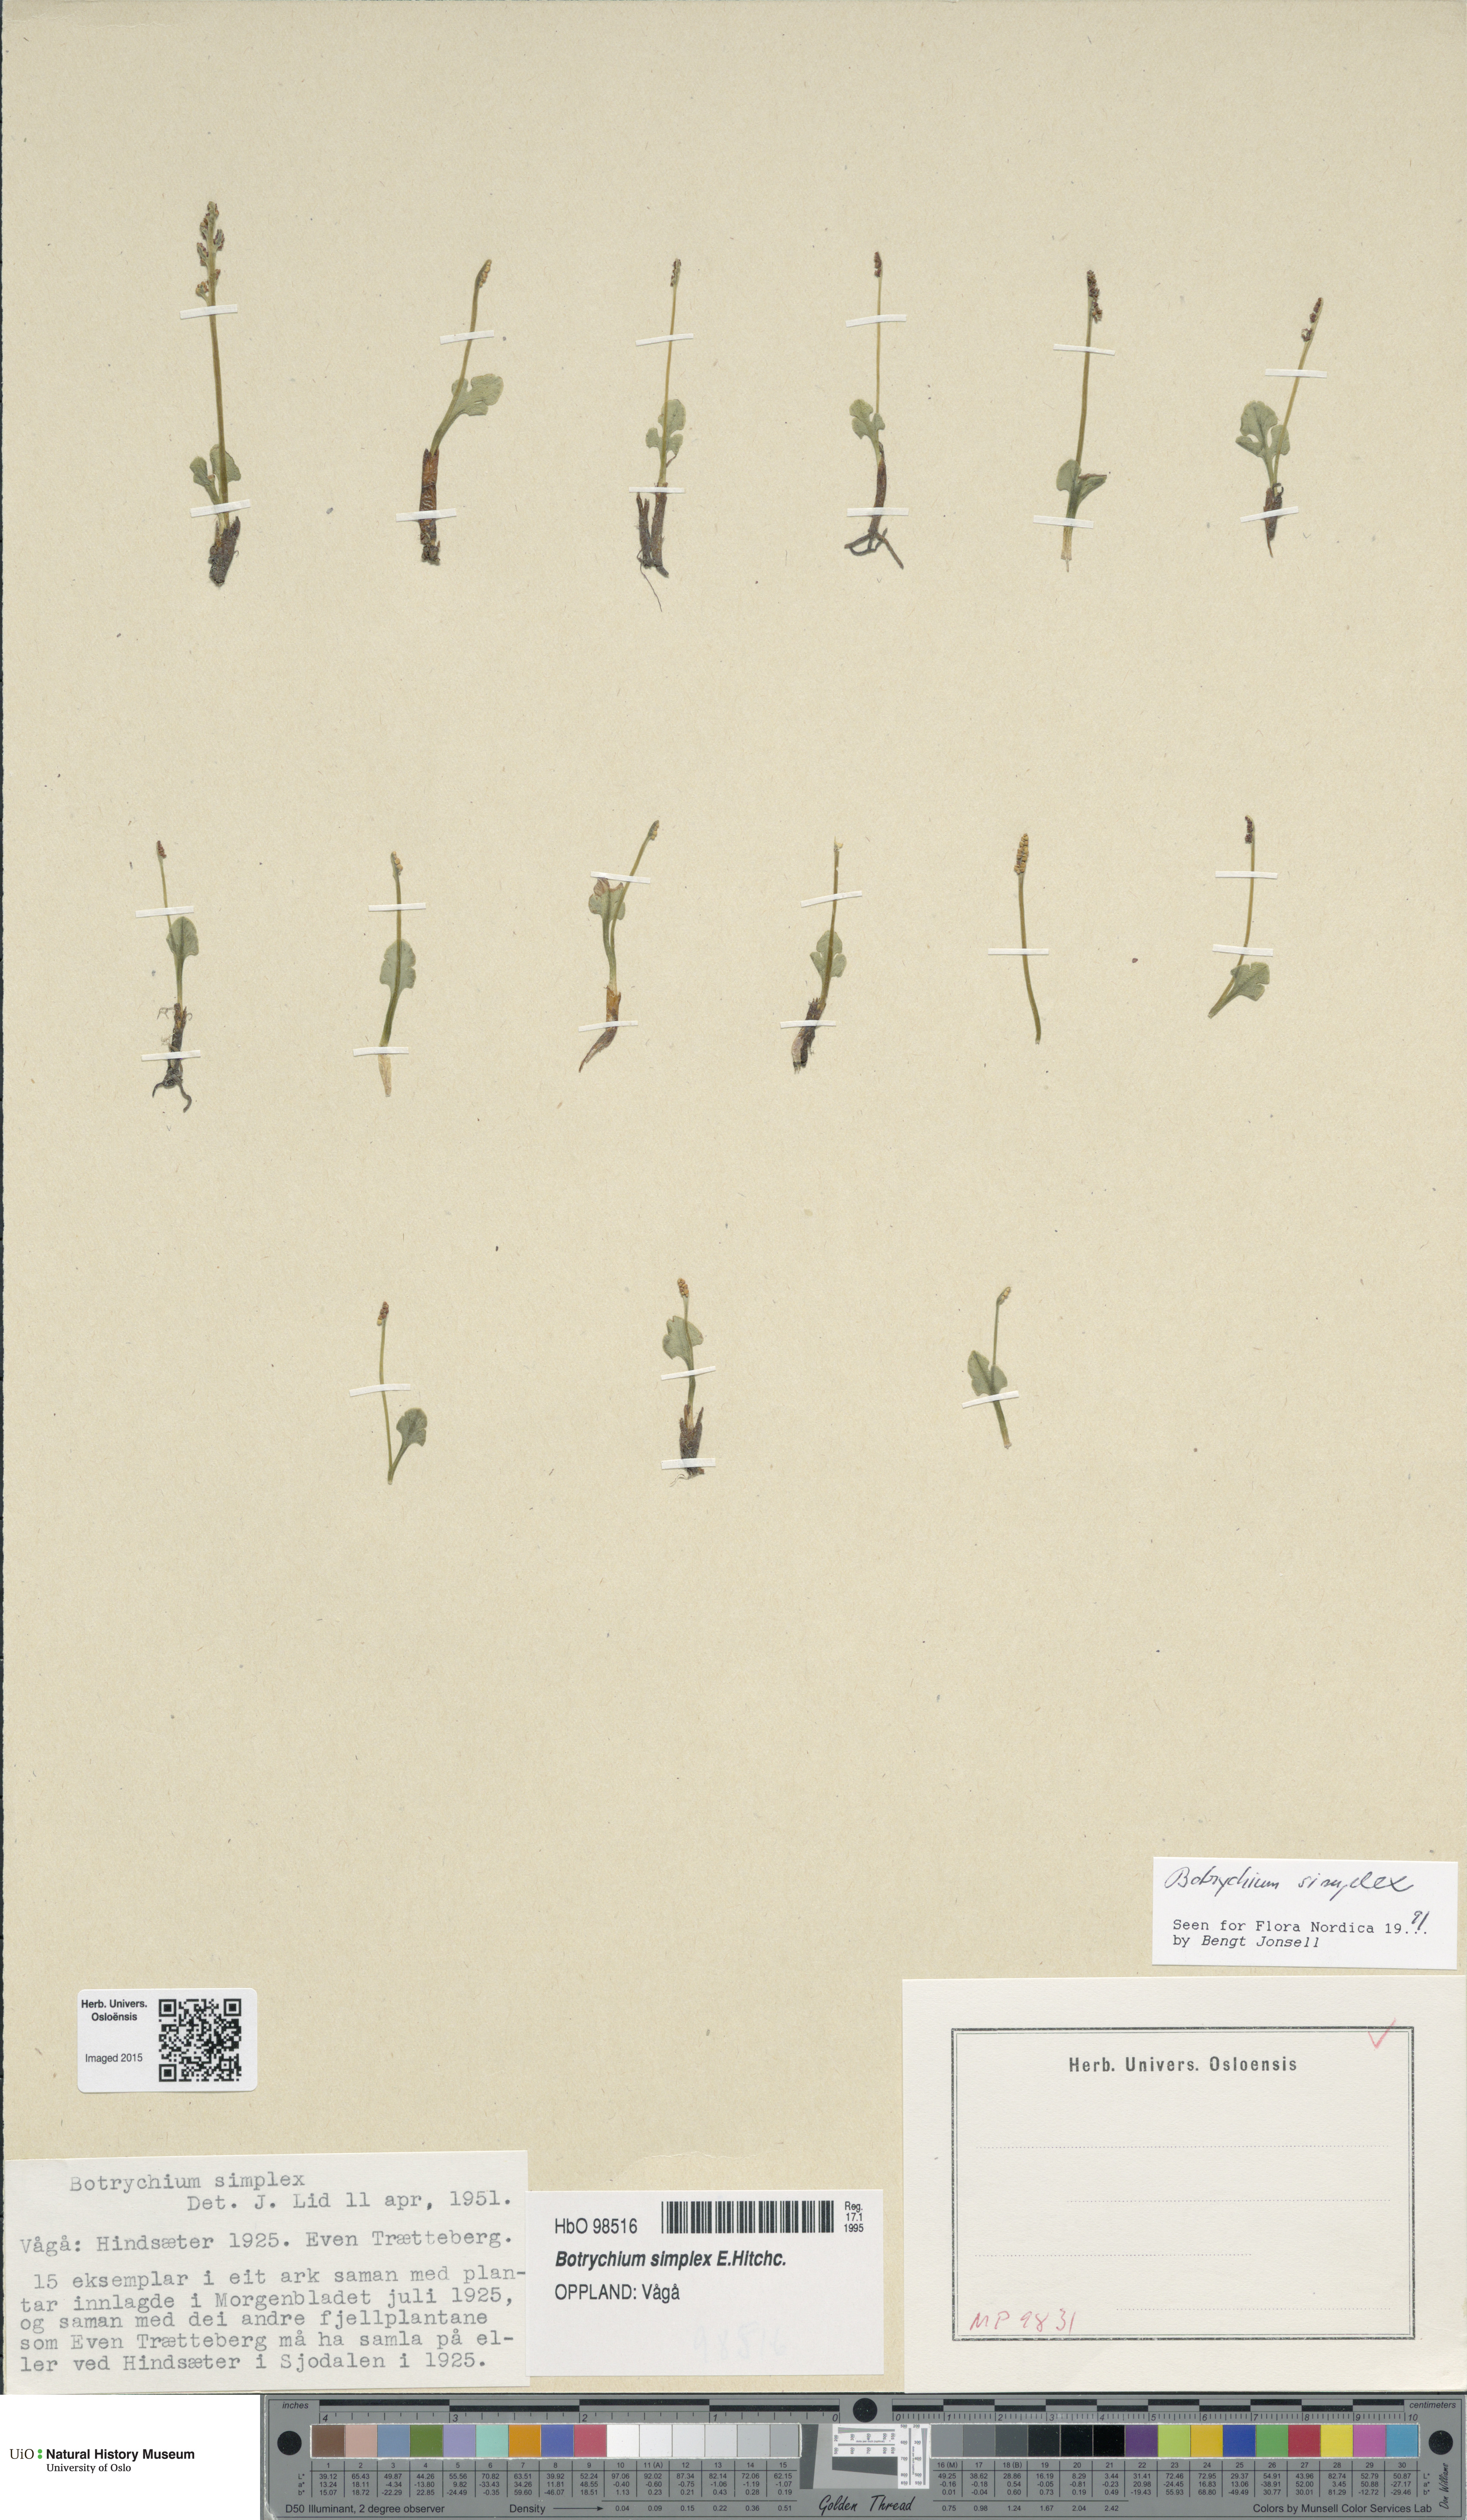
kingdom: Plantae
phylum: Tracheophyta
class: Polypodiopsida
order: Ophioglossales
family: Ophioglossaceae
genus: Botrychium
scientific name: Botrychium simplex
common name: Least moonwort
